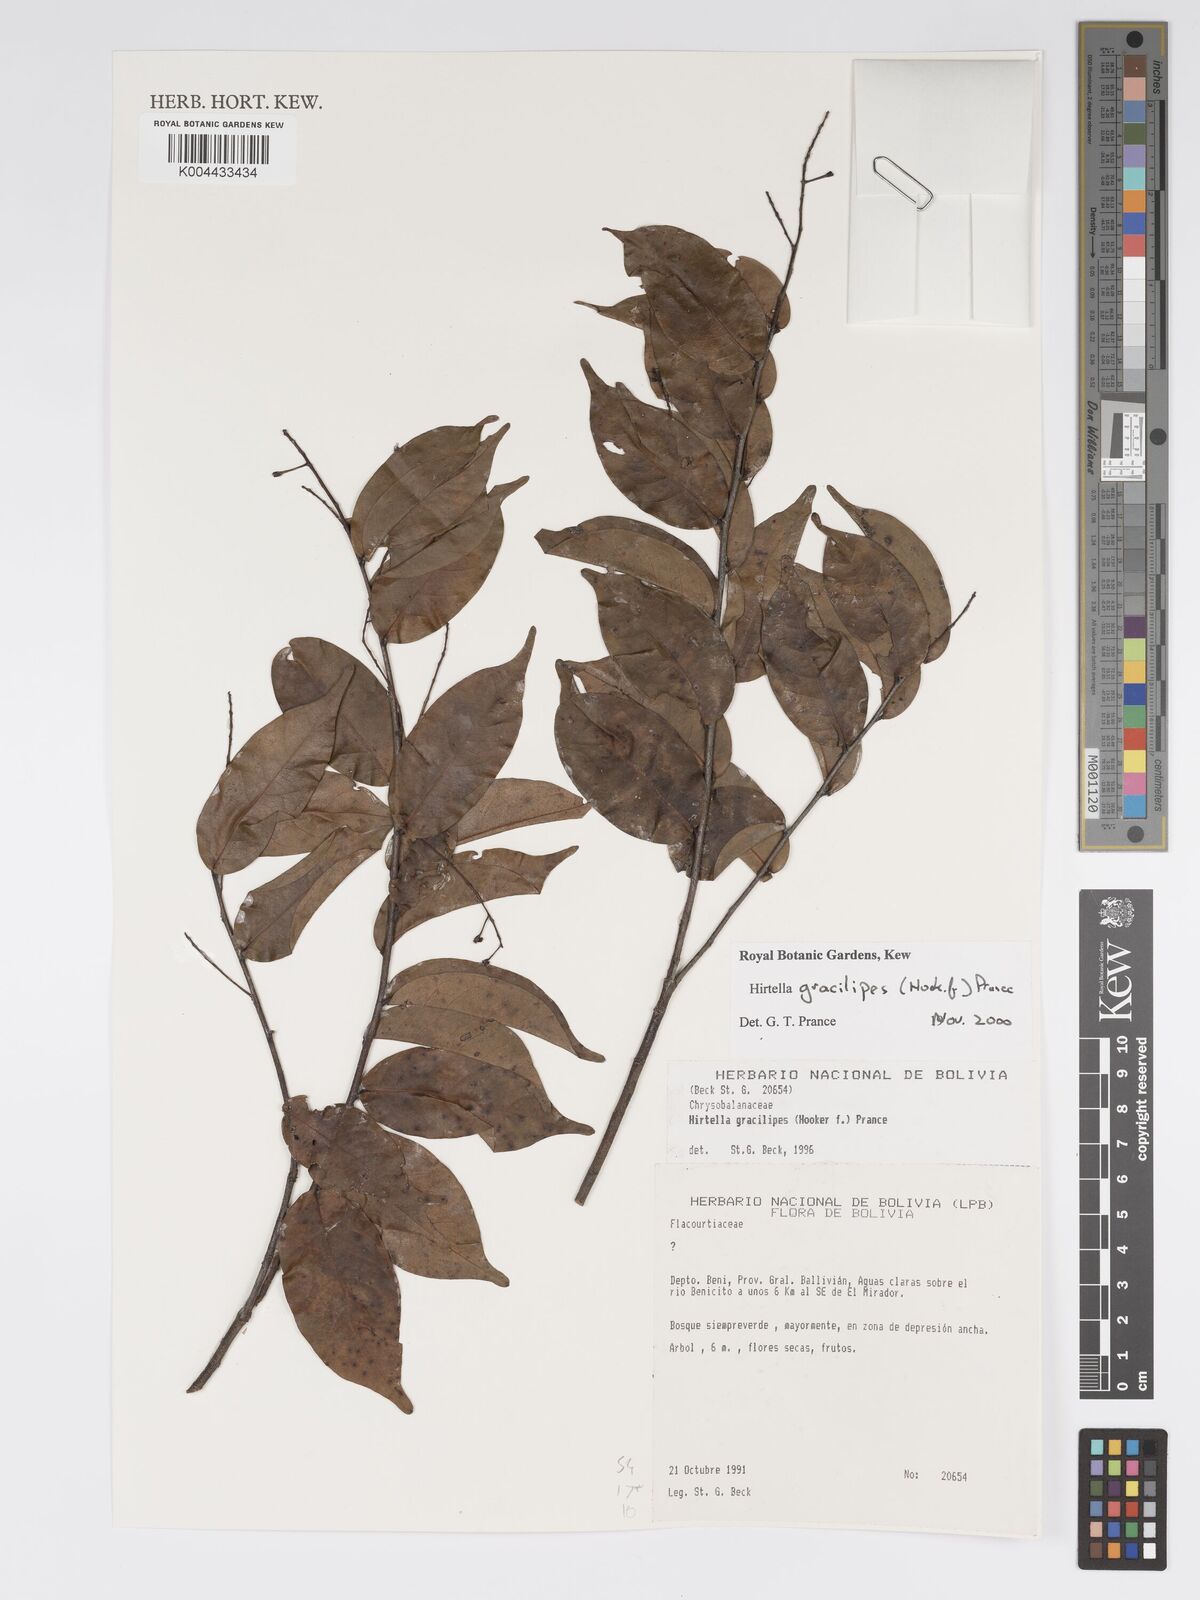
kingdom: Plantae
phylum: Tracheophyta
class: Magnoliopsida
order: Malpighiales
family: Chrysobalanaceae
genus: Hirtella
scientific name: Hirtella gracilipes
